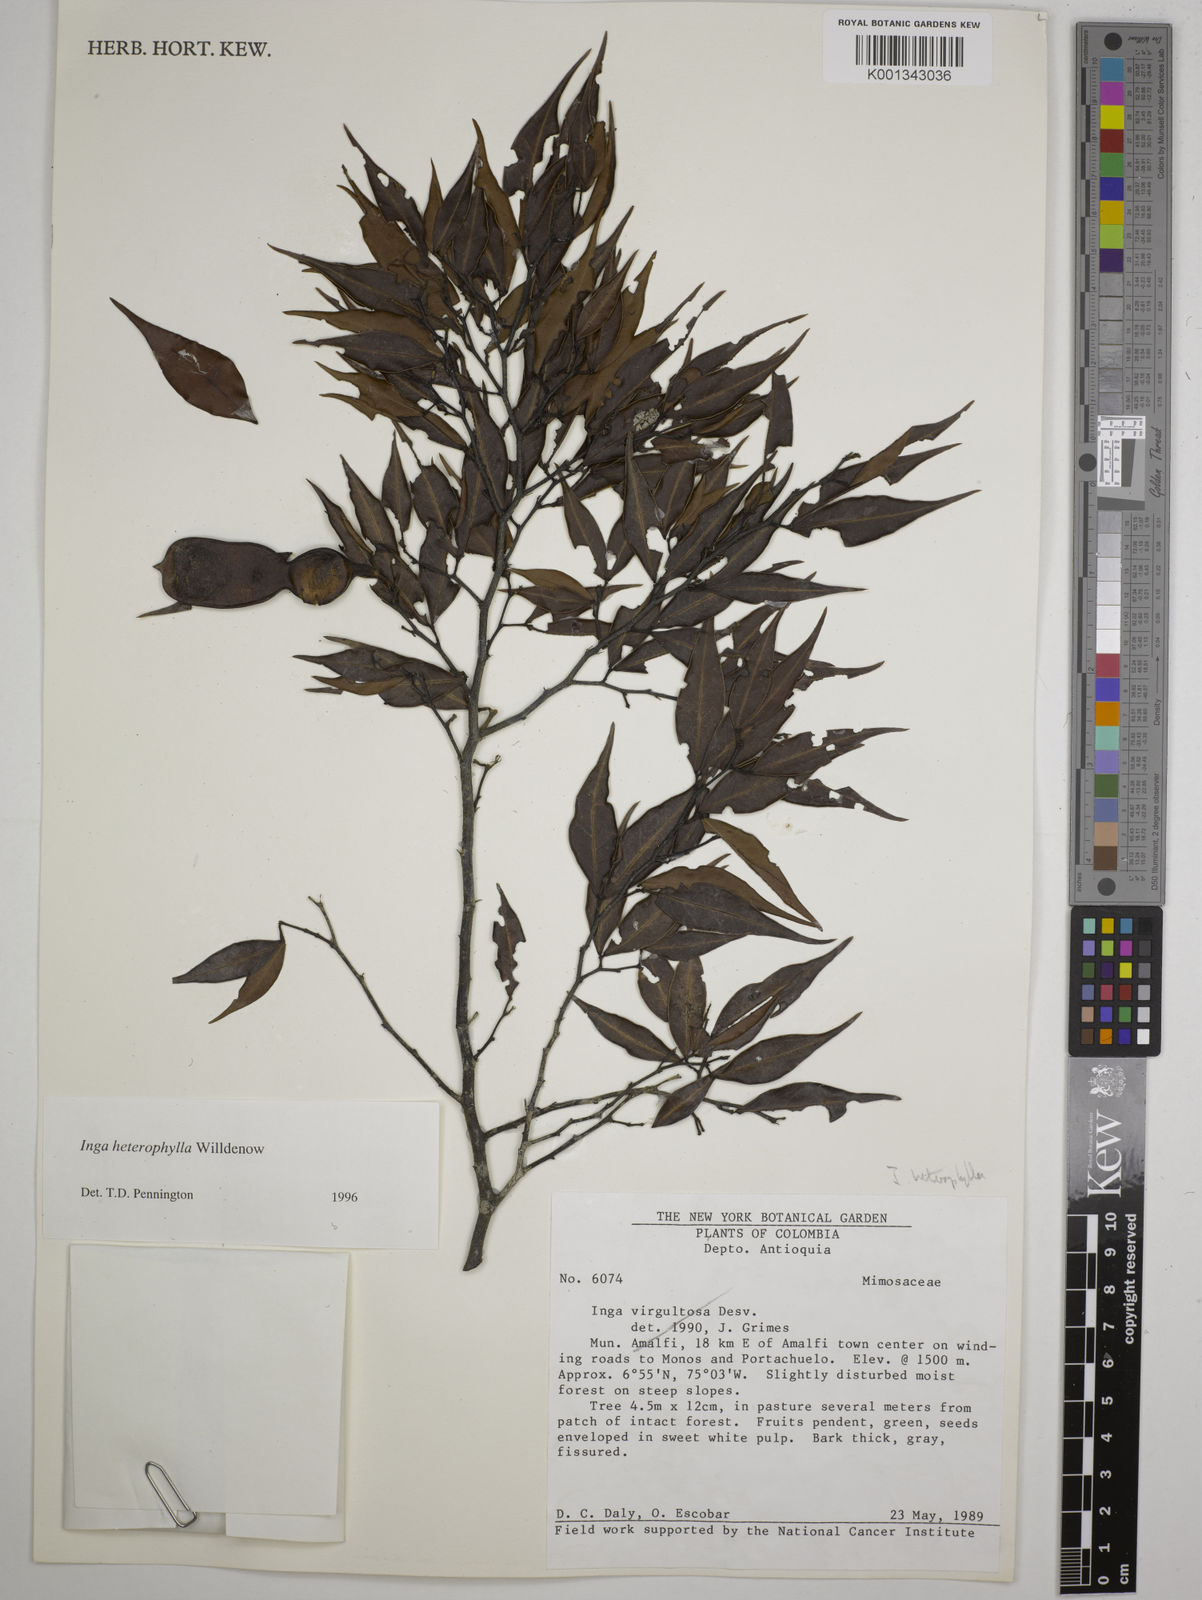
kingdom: Plantae
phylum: Tracheophyta
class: Magnoliopsida
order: Fabales
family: Fabaceae
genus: Inga
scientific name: Inga heterophylla
